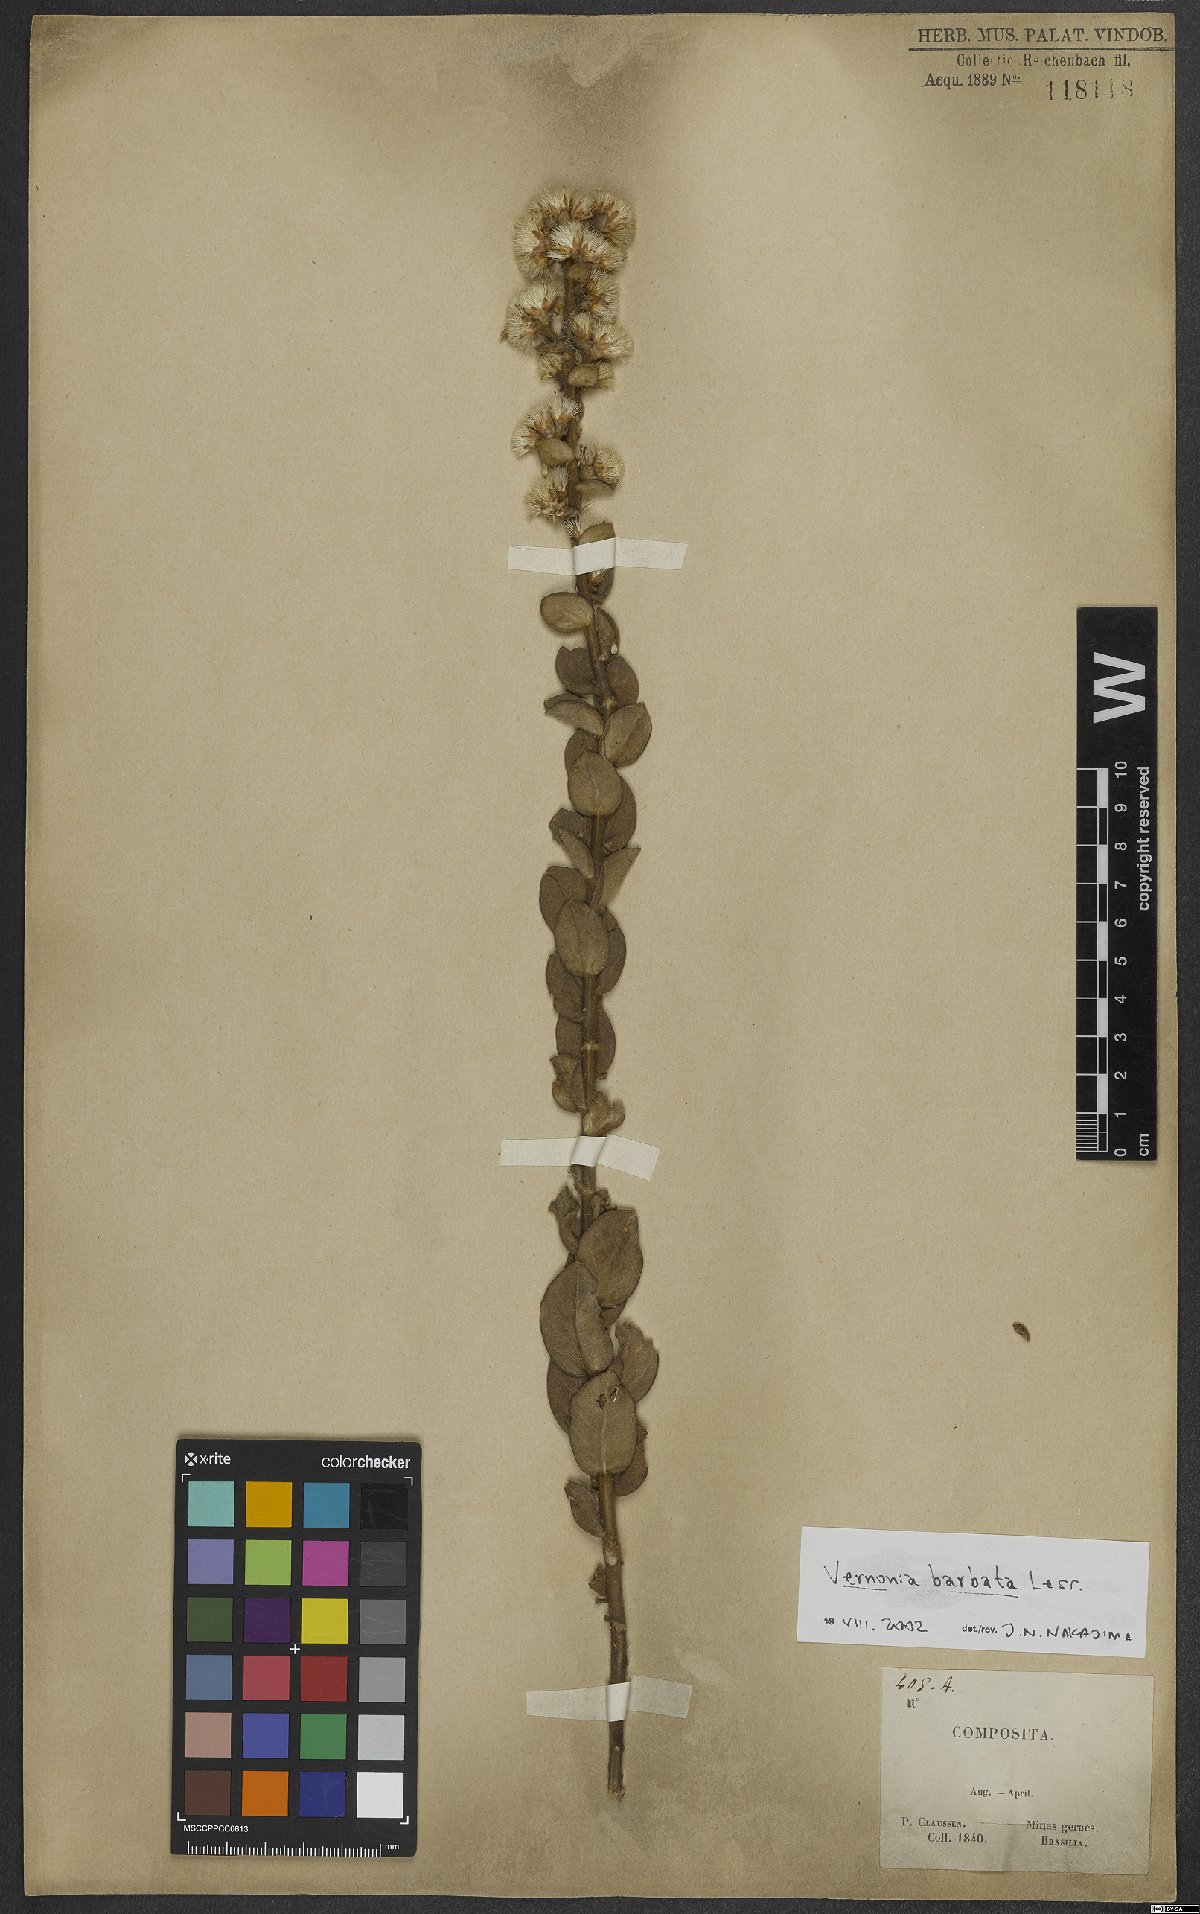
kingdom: Plantae
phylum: Tracheophyta
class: Magnoliopsida
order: Asterales
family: Asteraceae
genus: Lepidaploa
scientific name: Lepidaploa barbata
